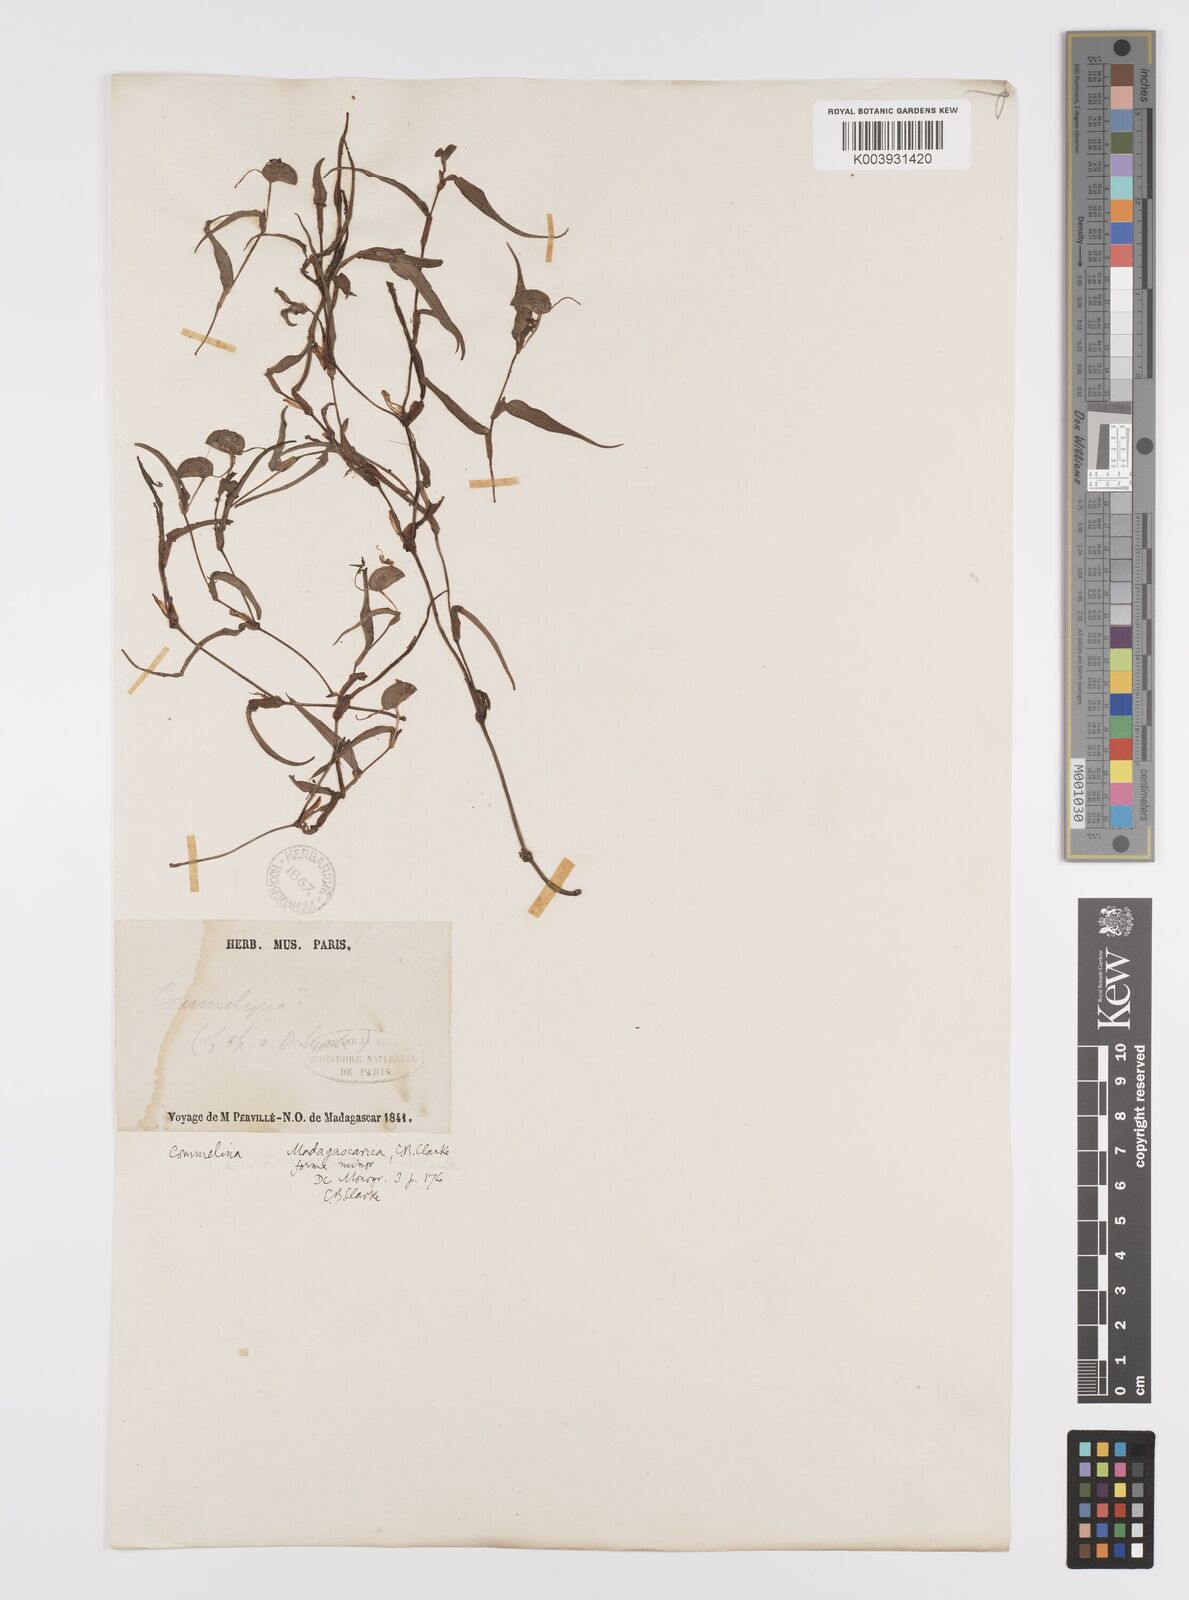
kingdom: Plantae
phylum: Tracheophyta
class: Liliopsida
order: Commelinales
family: Commelinaceae
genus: Commelina
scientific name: Commelina madagascarica
